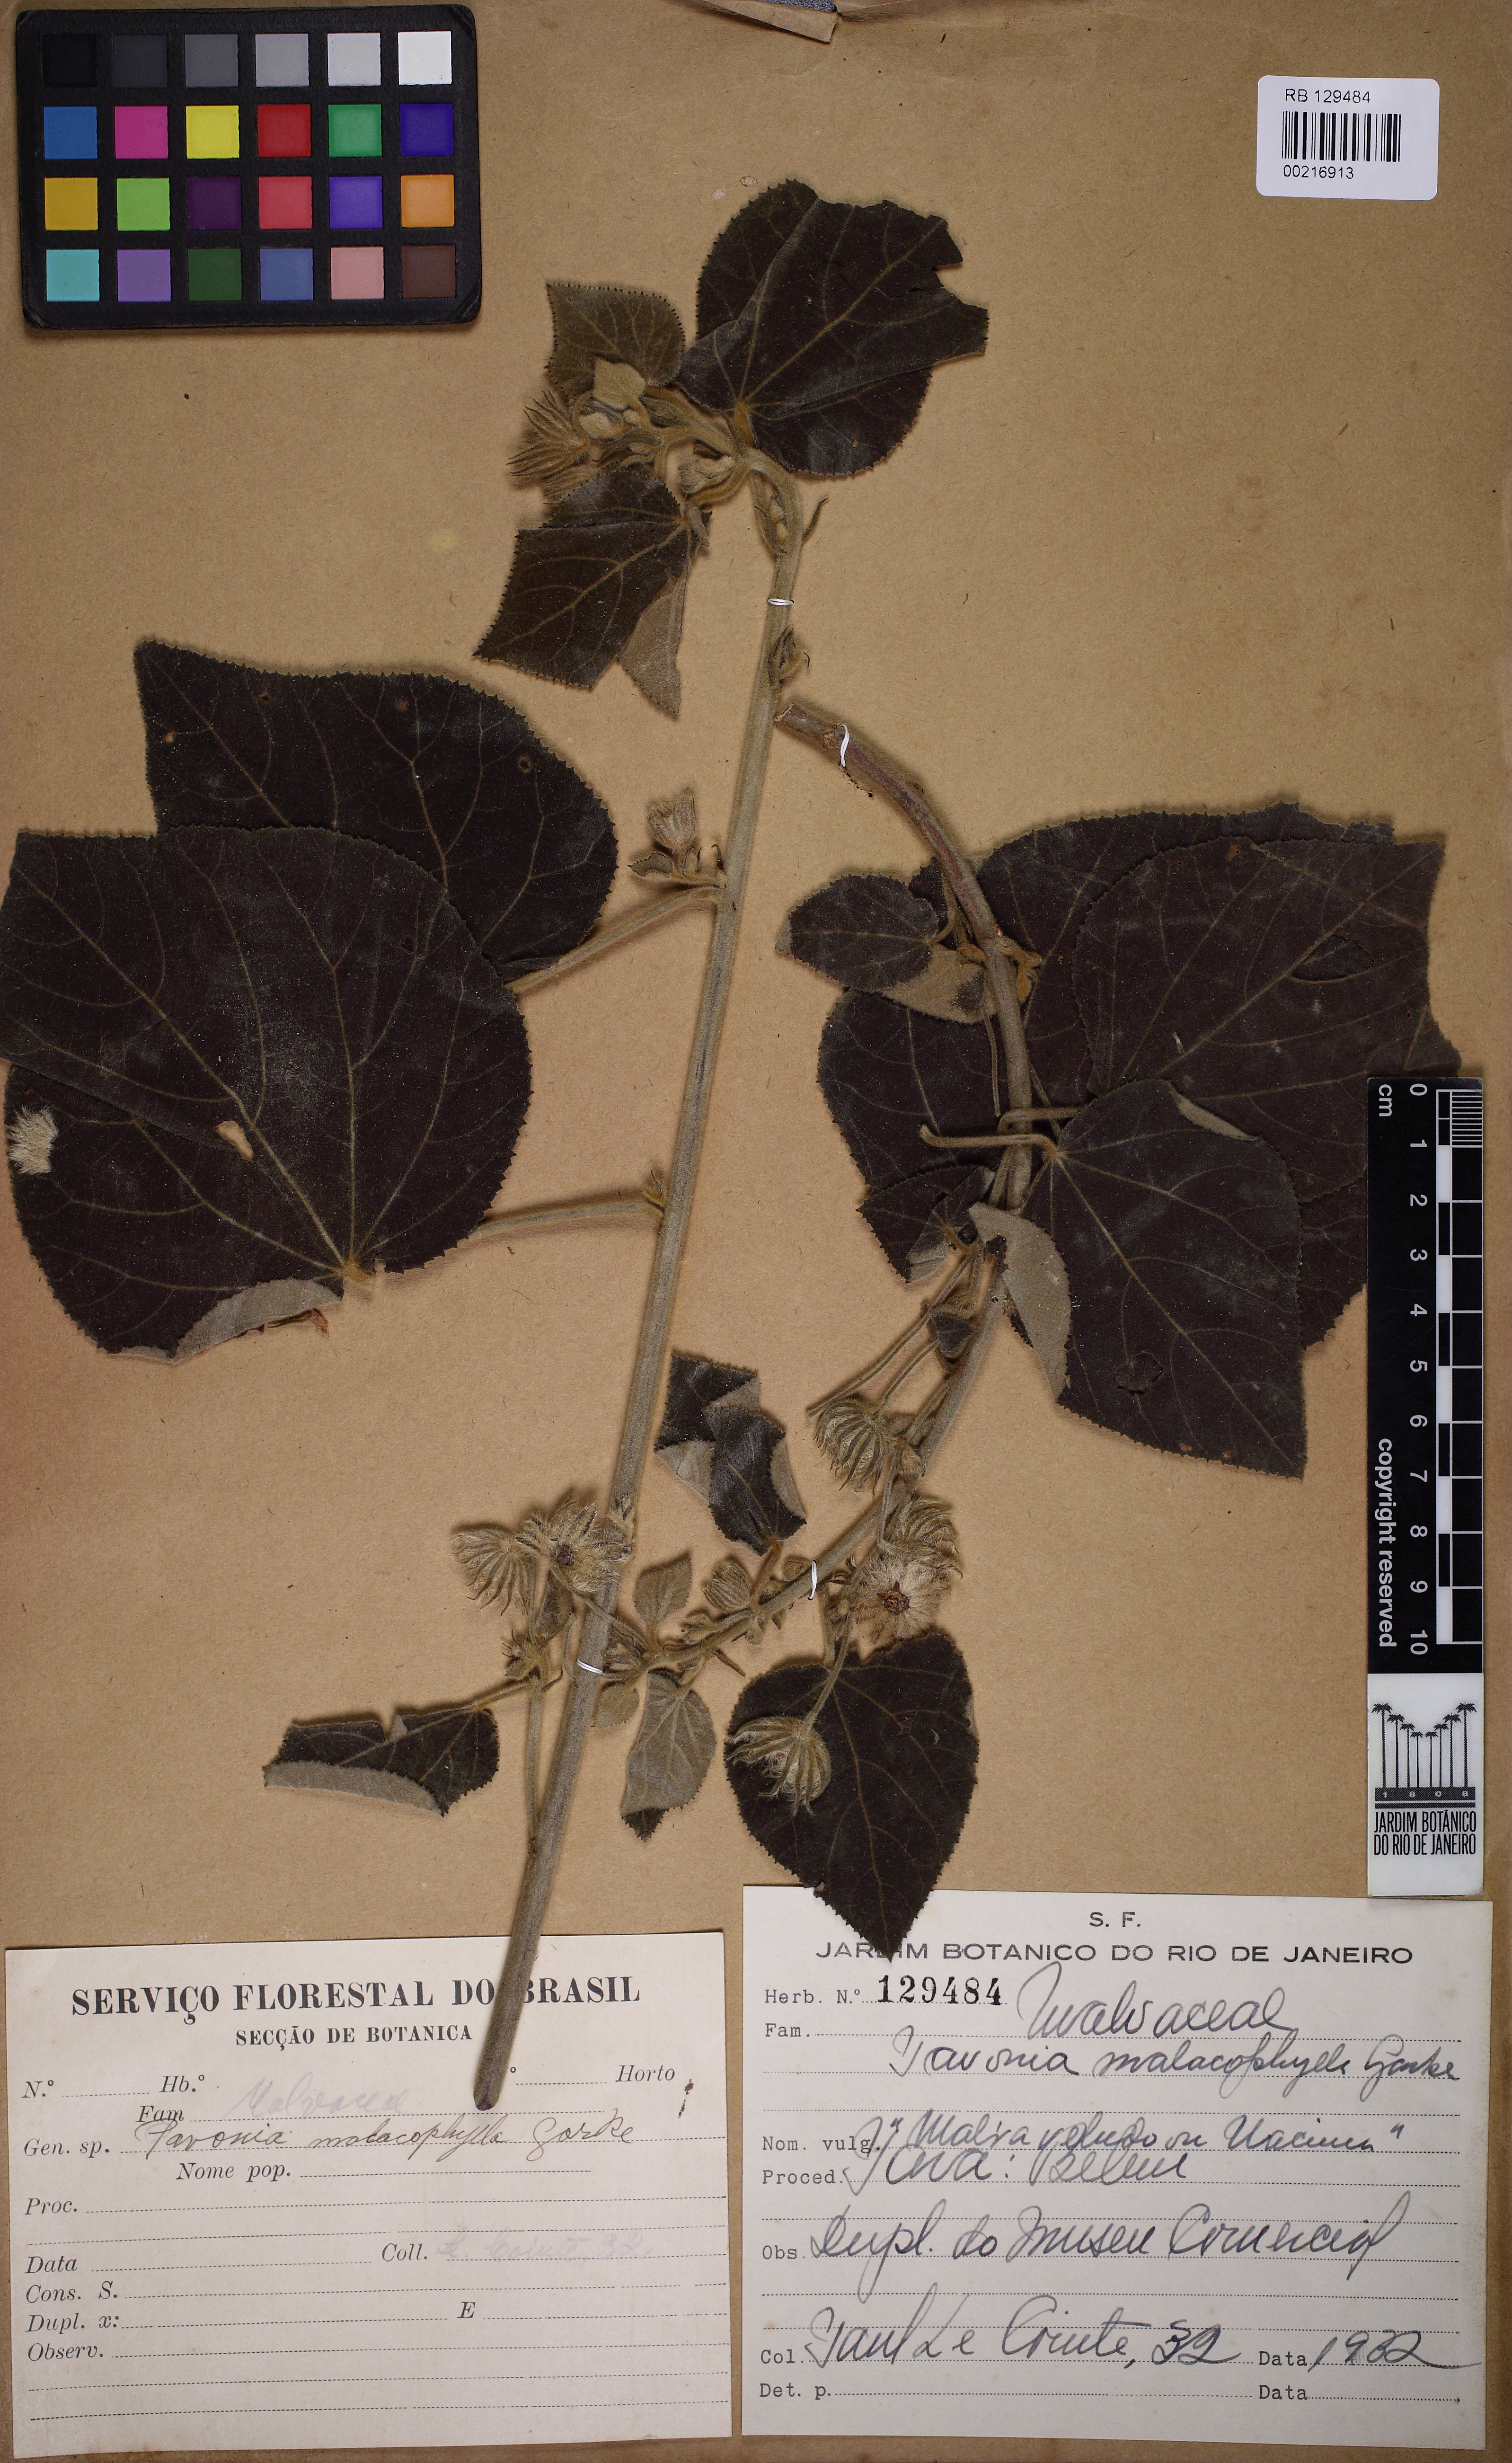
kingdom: Plantae
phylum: Tracheophyta
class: Magnoliopsida
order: Malvales
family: Malvaceae
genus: Pavonia
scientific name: Pavonia
